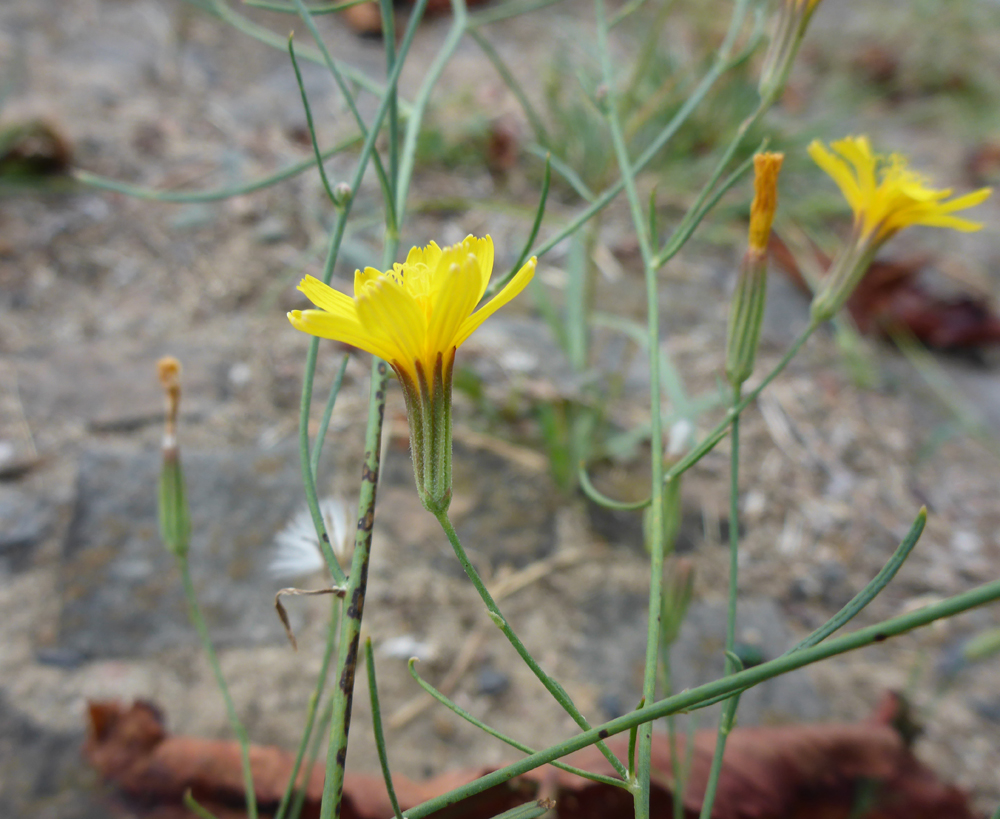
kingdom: Plantae
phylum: Tracheophyta
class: Magnoliopsida
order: Asterales
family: Asteraceae
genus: Chondrilla
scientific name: Chondrilla juncea
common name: Skeleton weed
